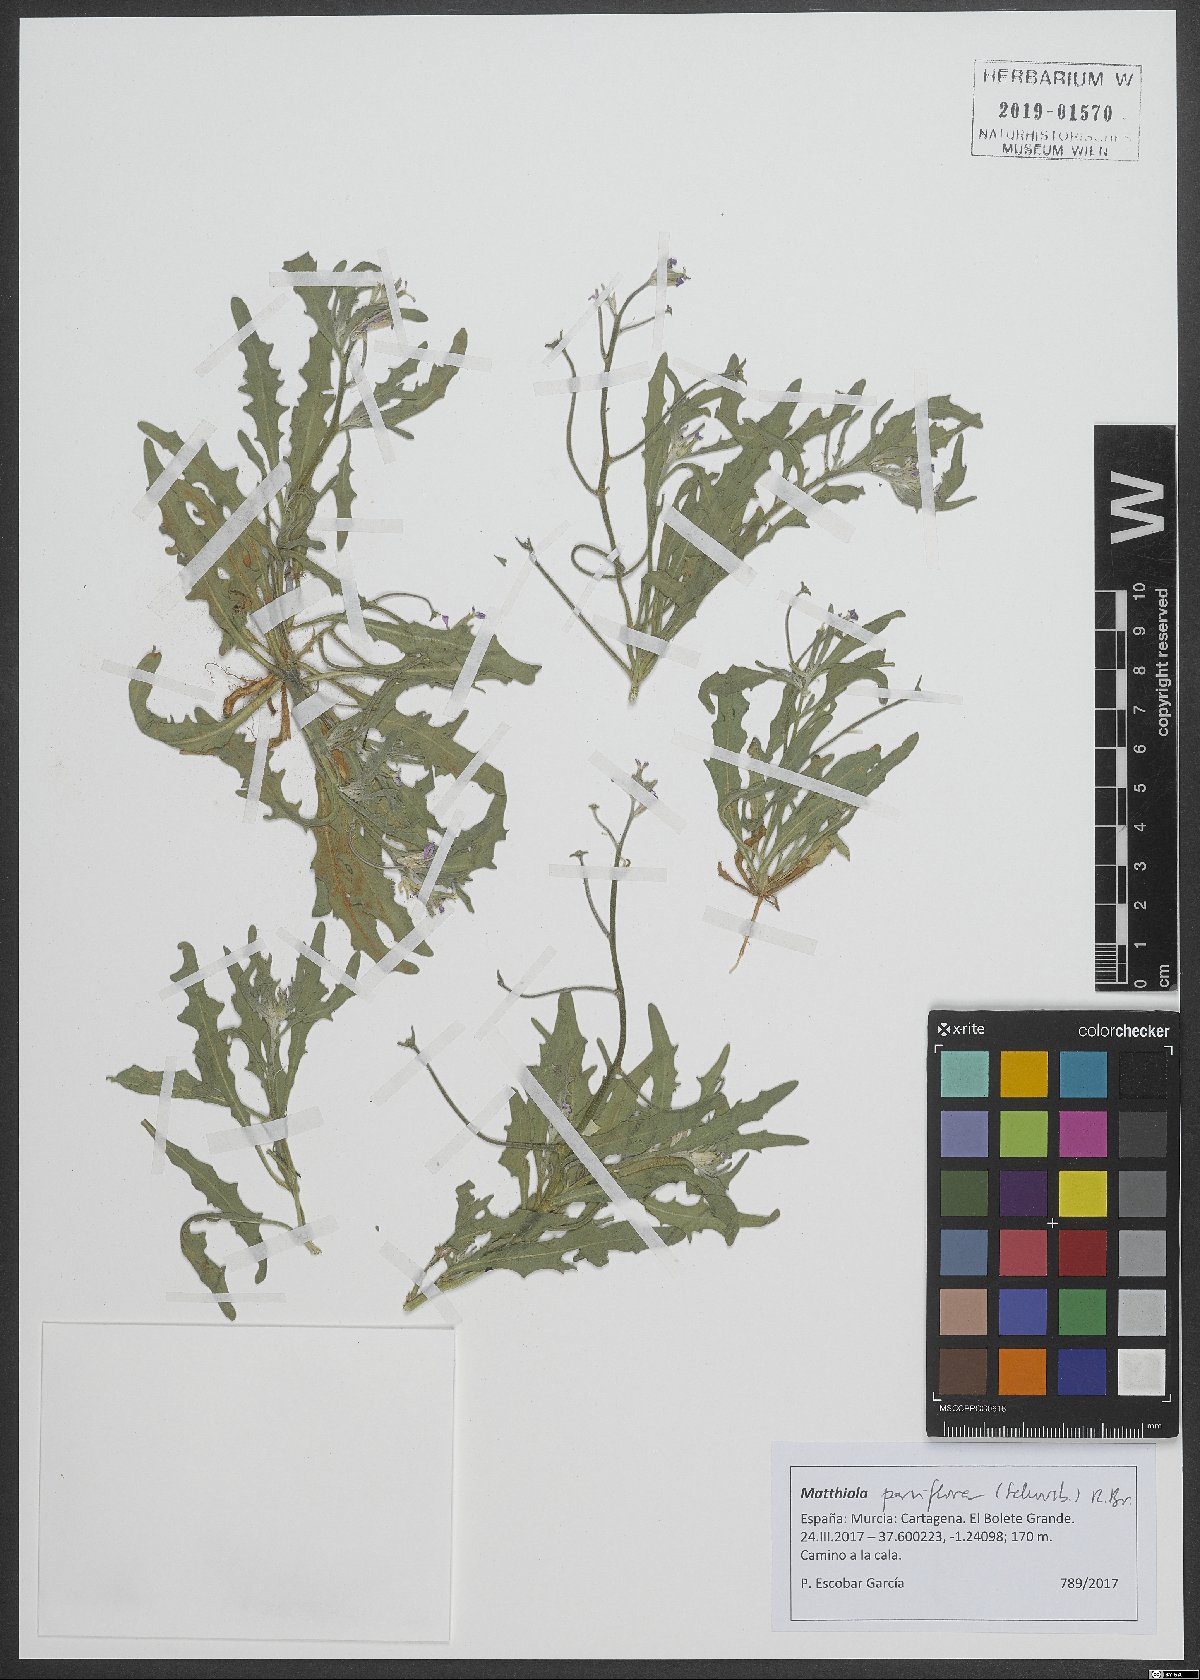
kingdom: Plantae
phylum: Tracheophyta
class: Magnoliopsida
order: Brassicales
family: Brassicaceae
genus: Matthiola
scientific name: Matthiola parviflora
